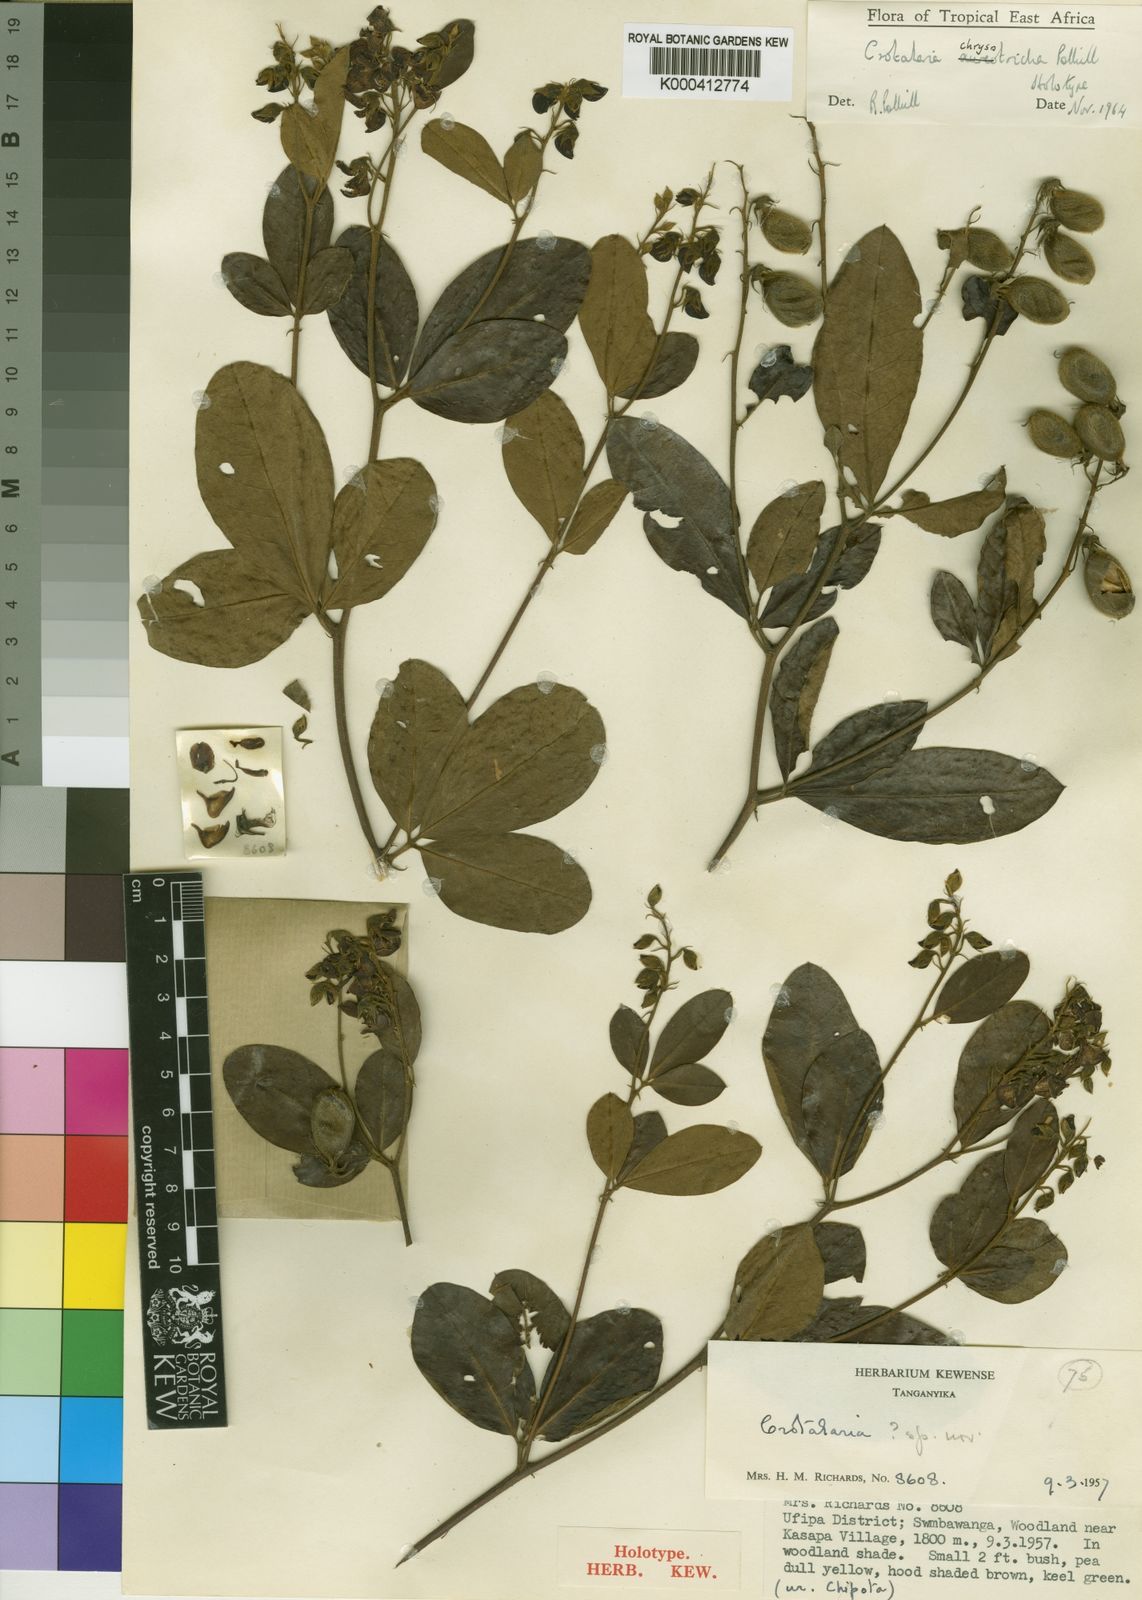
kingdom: Plantae
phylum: Tracheophyta
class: Magnoliopsida
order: Fabales
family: Fabaceae
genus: Crotalaria
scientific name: Crotalaria chrysotricha
